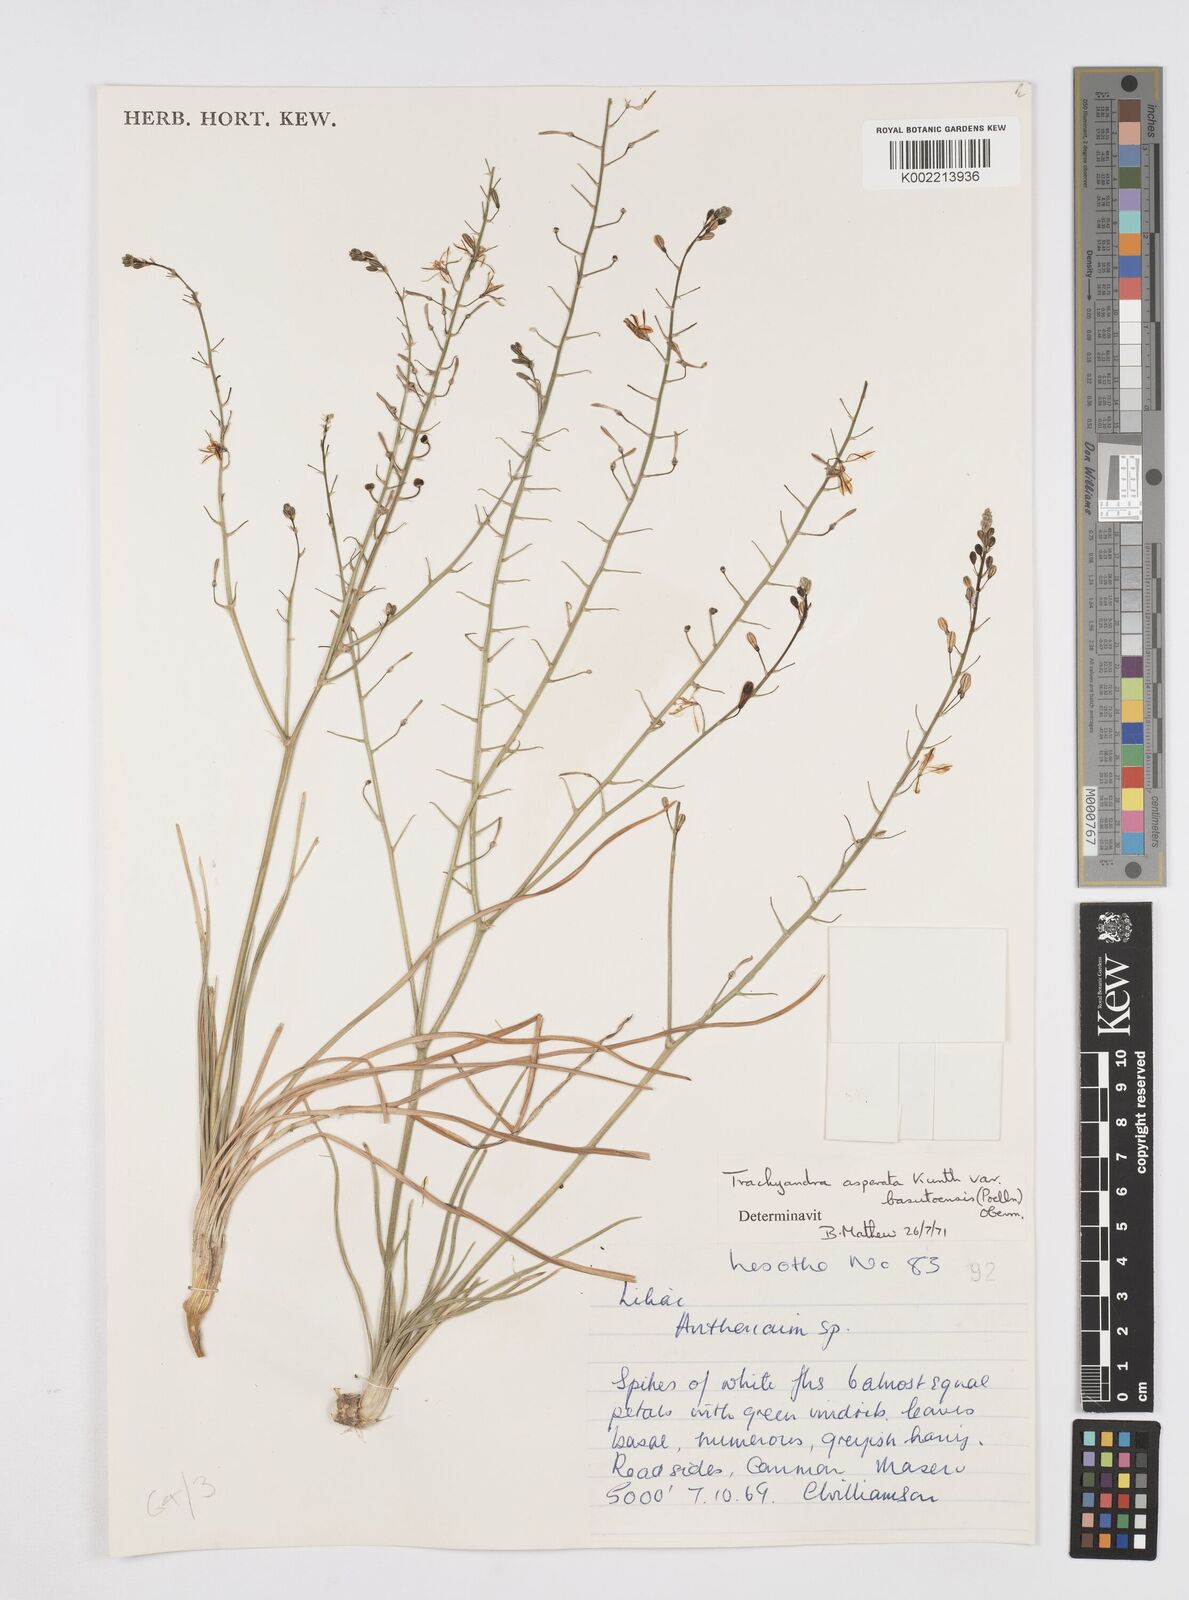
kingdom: Plantae
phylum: Tracheophyta
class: Liliopsida
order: Asparagales
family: Asphodelaceae
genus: Trachyandra
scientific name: Trachyandra asperata
